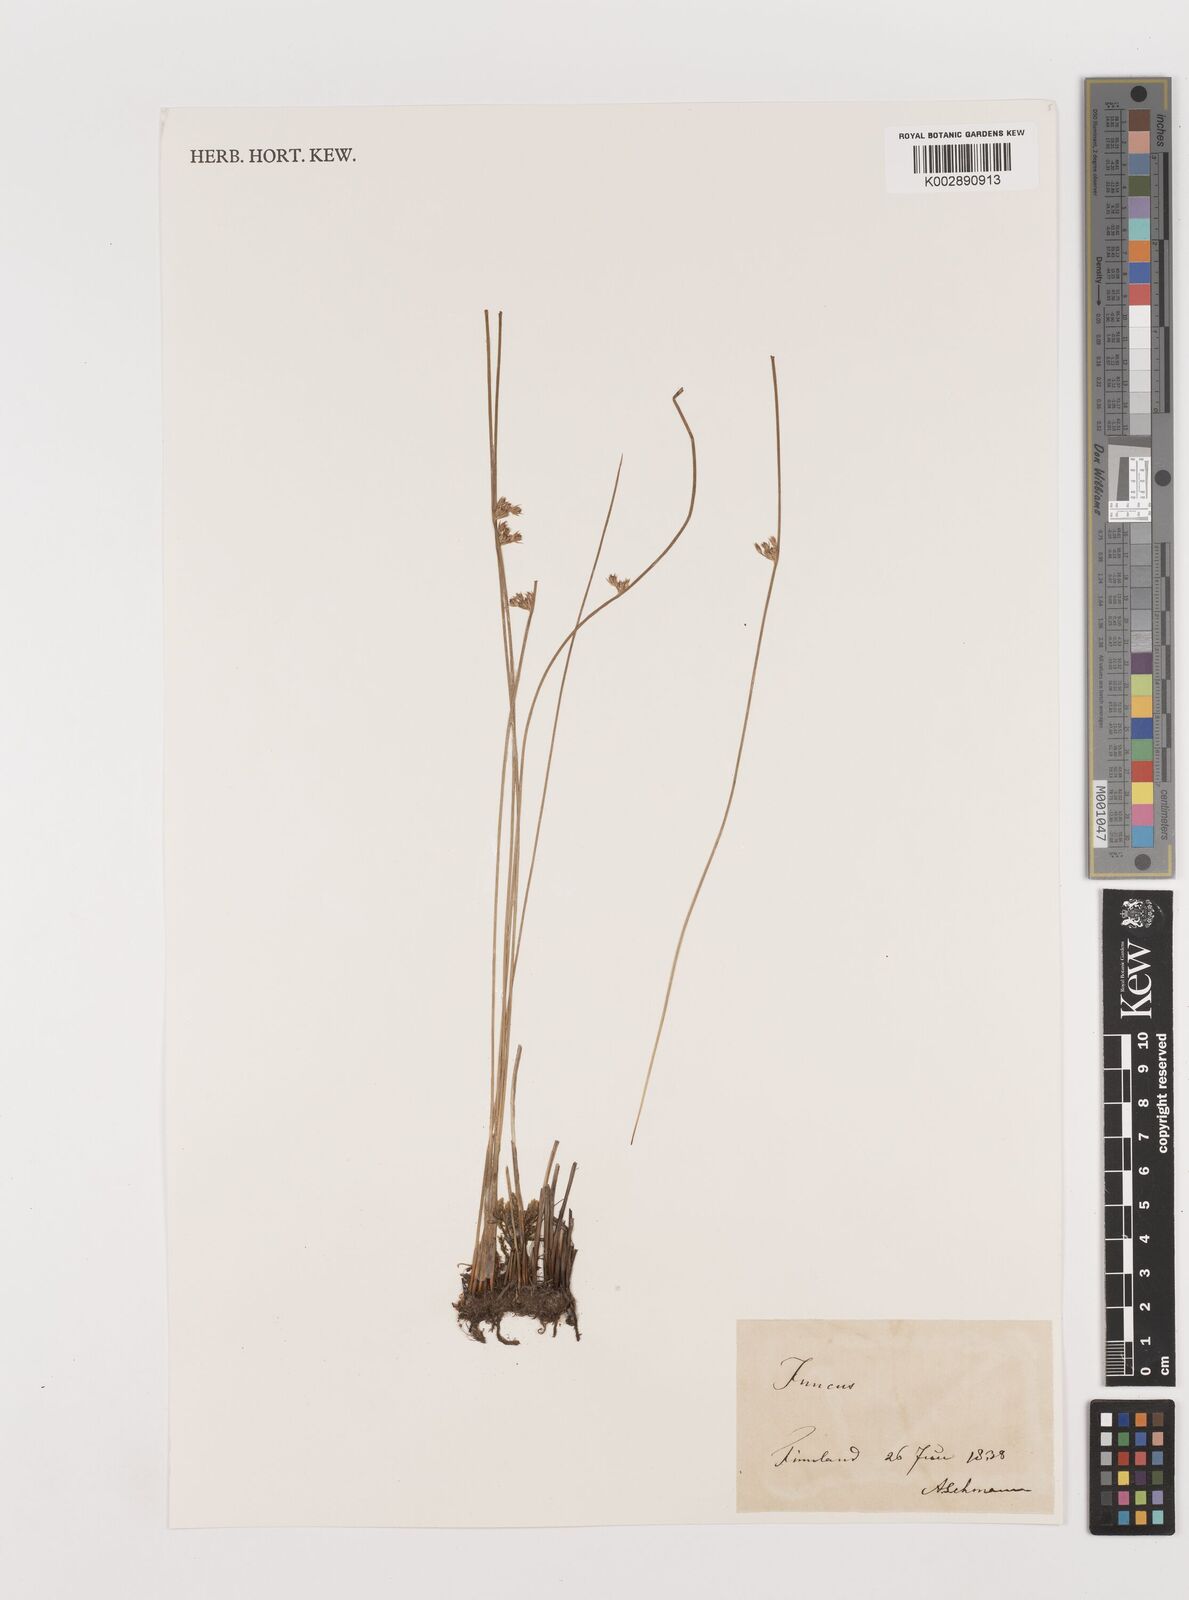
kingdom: Plantae
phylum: Tracheophyta
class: Liliopsida
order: Poales
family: Juncaceae
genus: Juncus
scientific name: Juncus
